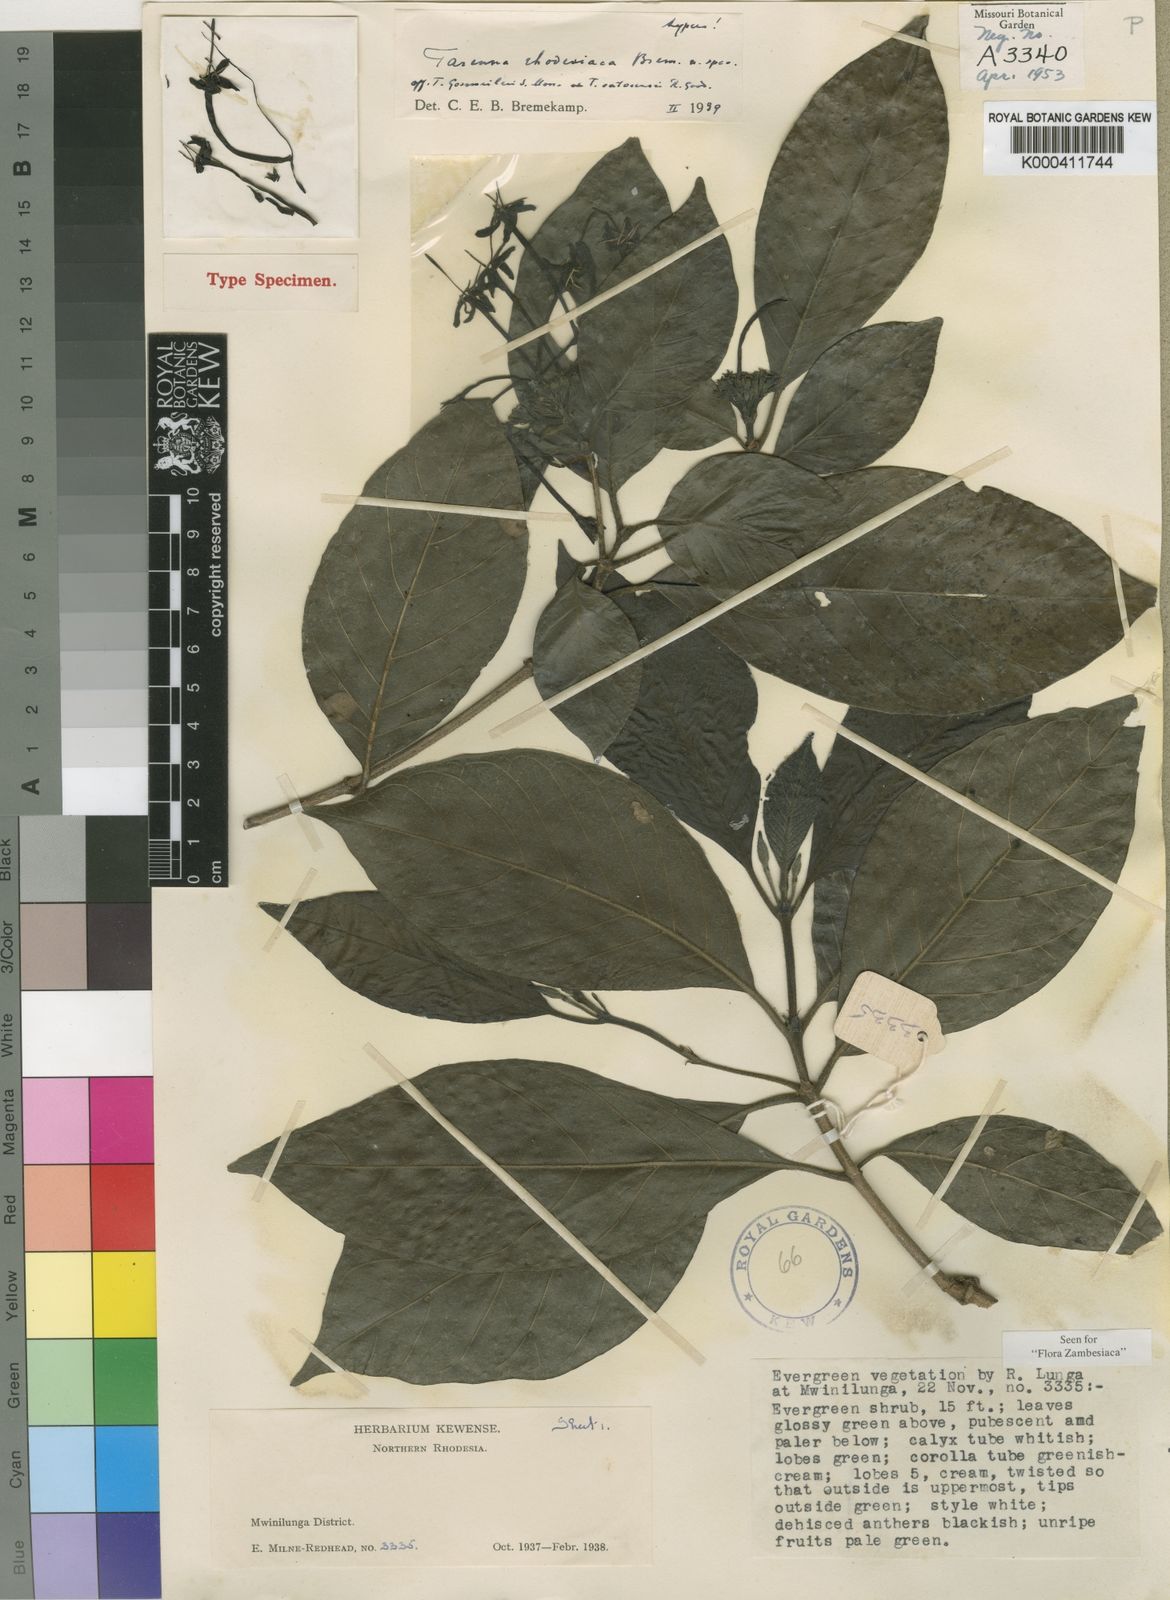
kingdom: Plantae
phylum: Tracheophyta
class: Magnoliopsida
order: Gentianales
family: Rubiaceae
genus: Tarenna
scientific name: Tarenna gossweileri
